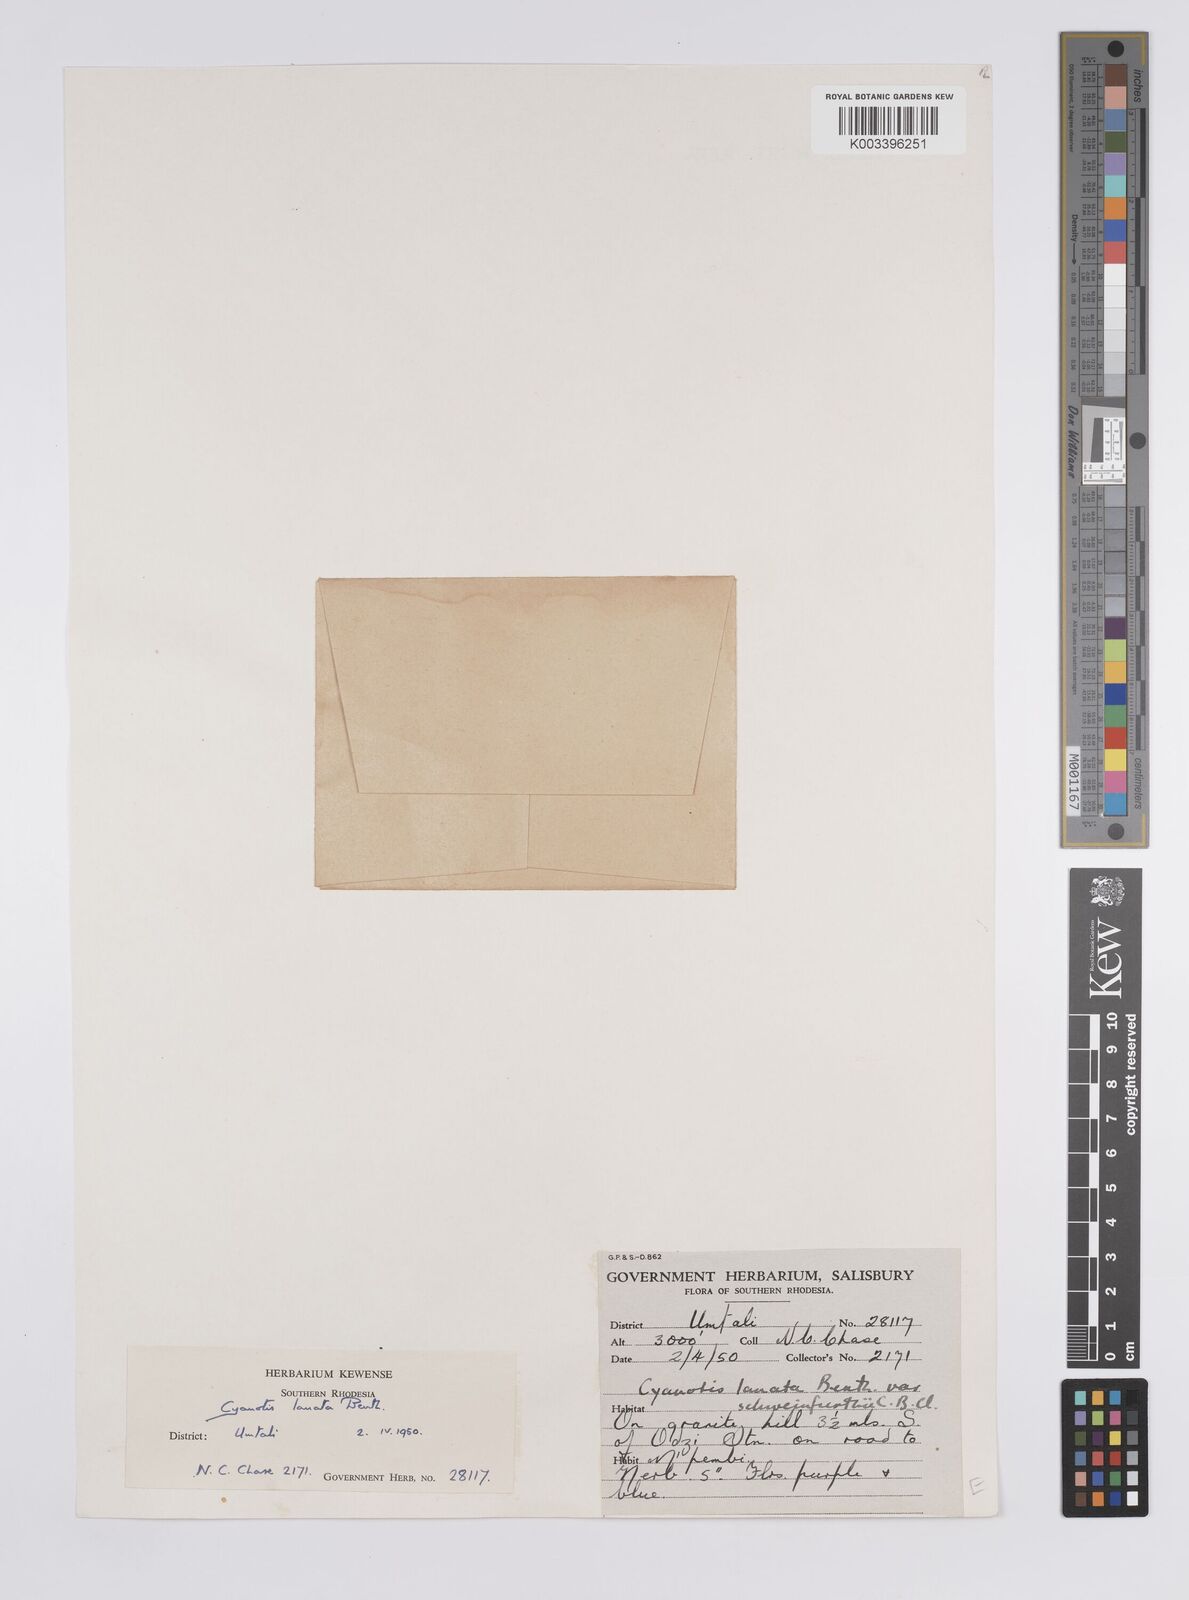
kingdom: Plantae
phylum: Tracheophyta
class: Liliopsida
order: Commelinales
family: Commelinaceae
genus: Cyanotis
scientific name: Cyanotis lanata
